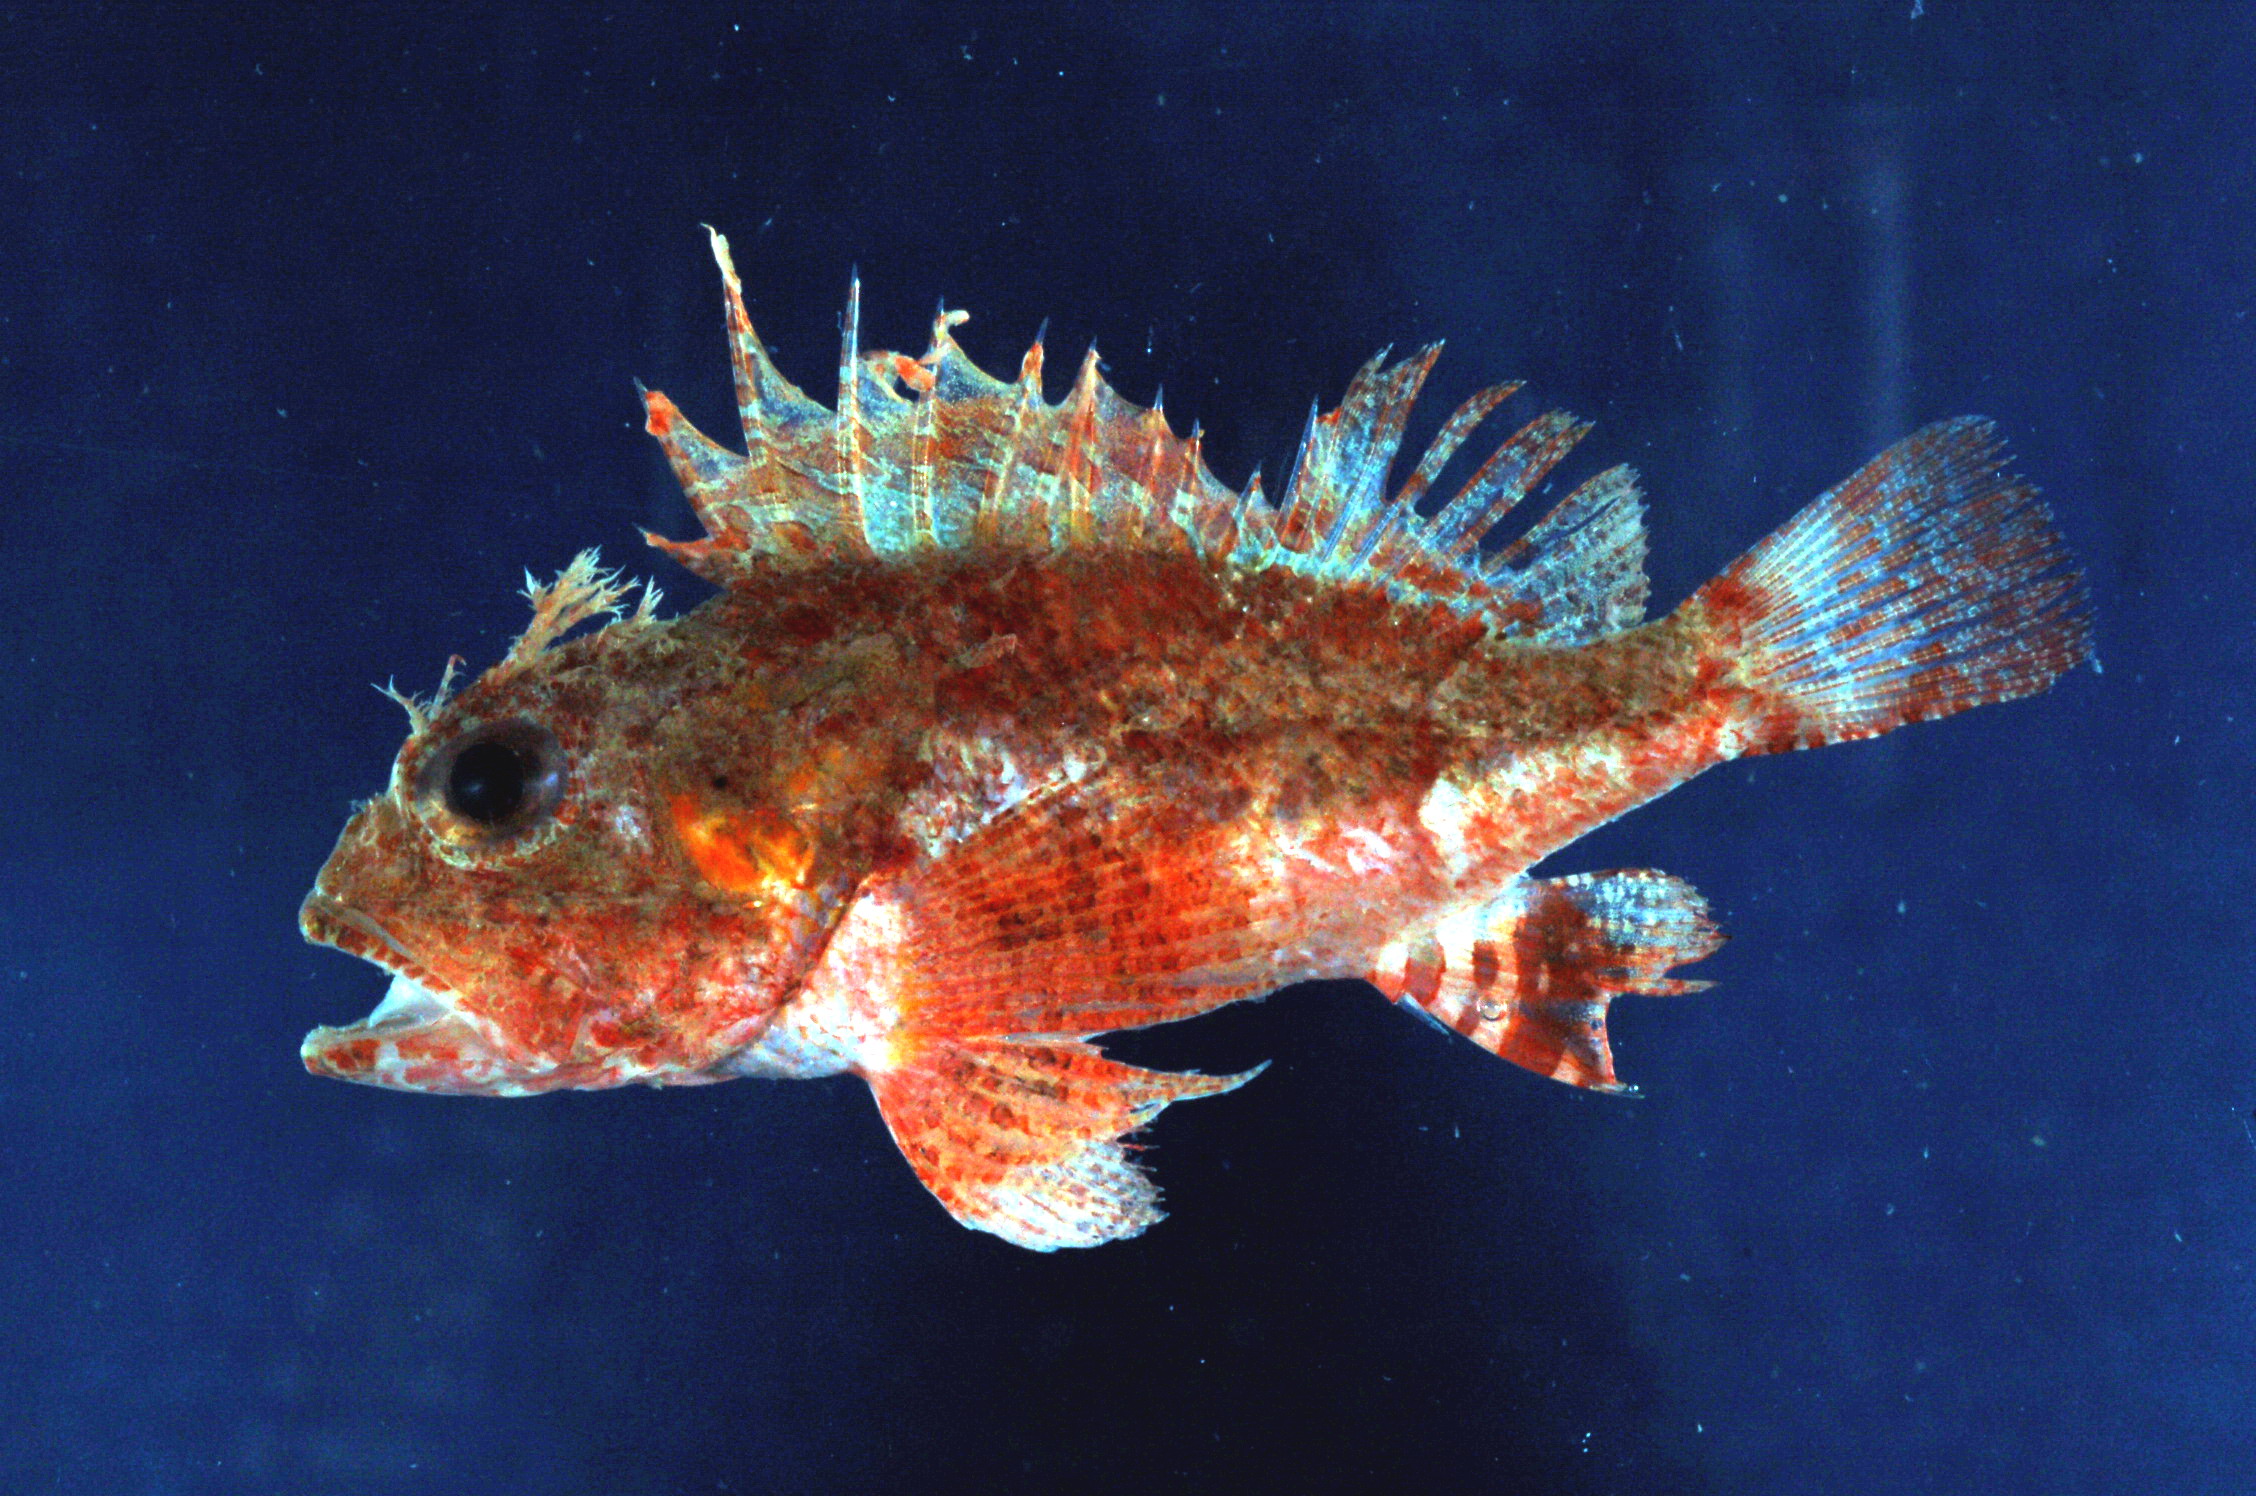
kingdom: Animalia
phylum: Chordata
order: Scorpaeniformes
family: Scorpaenidae
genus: Neoscorpaena
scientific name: Neoscorpaena nielseni
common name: Spotfin scorpionfish
